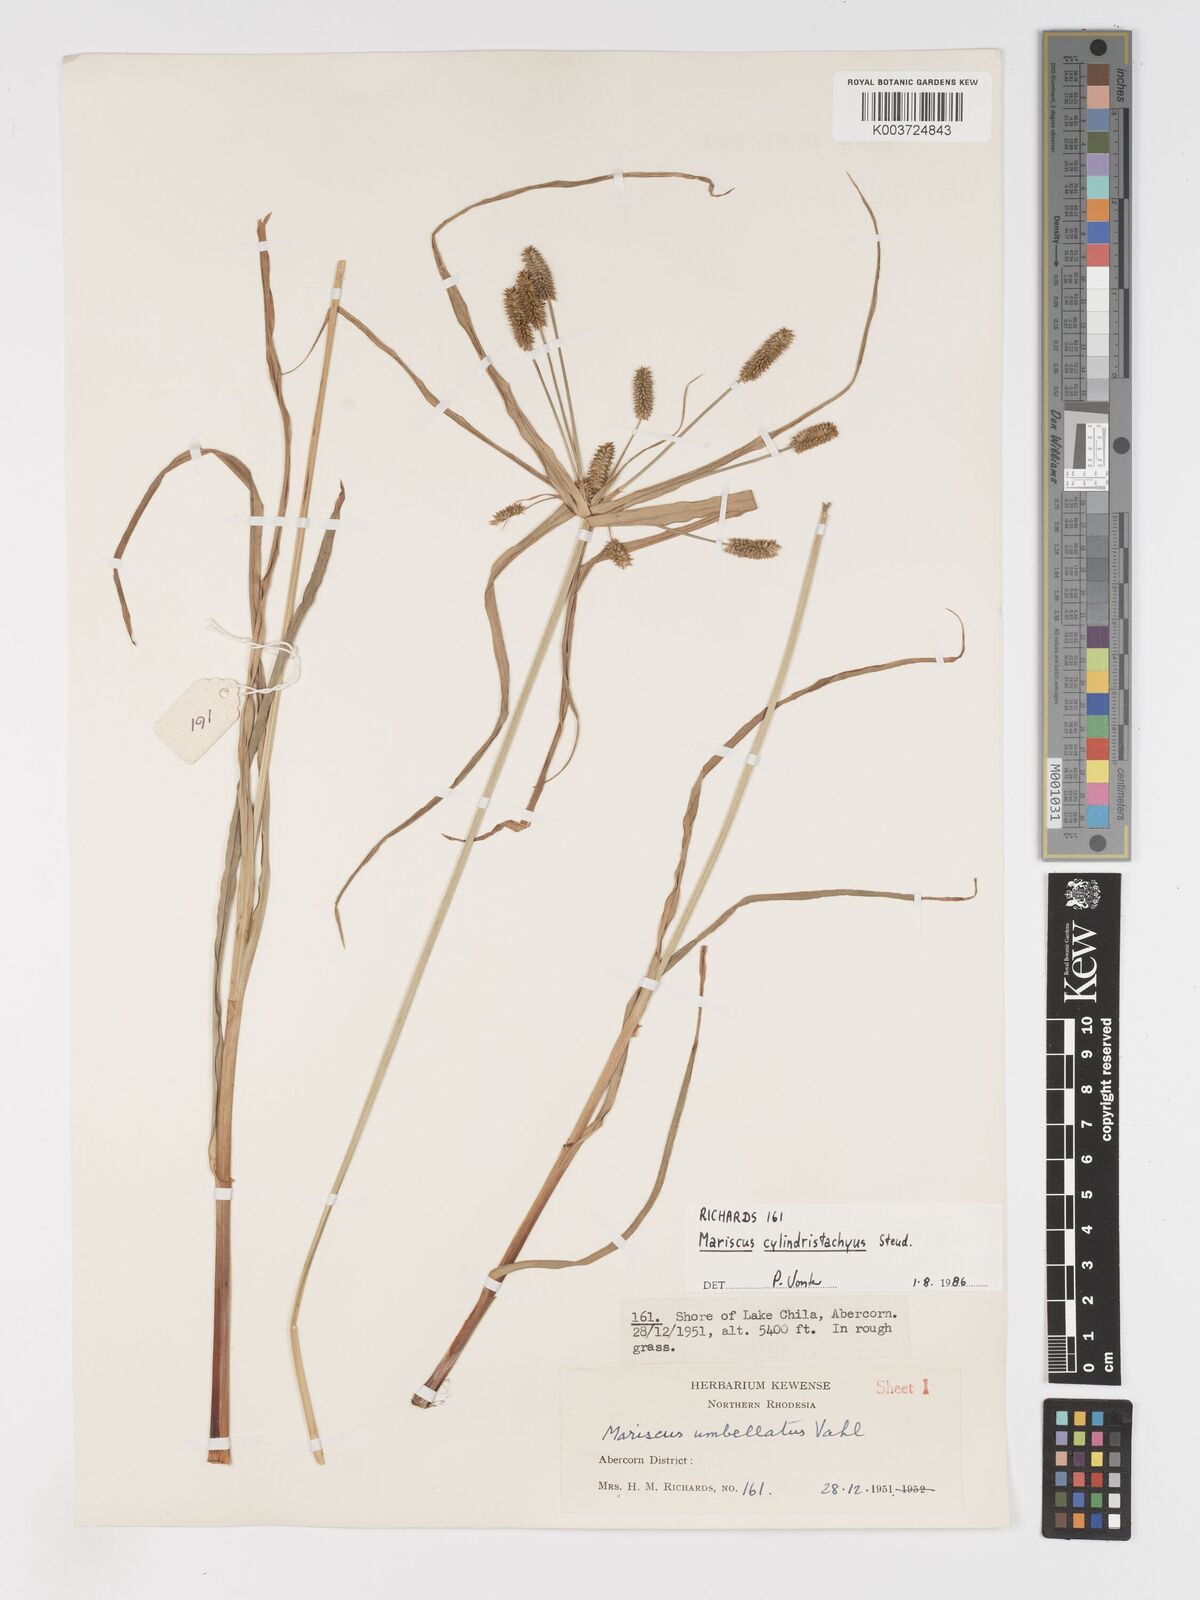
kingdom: Plantae
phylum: Tracheophyta
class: Liliopsida
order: Poales
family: Cyperaceae
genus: Cyperus
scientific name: Cyperus cyperoides
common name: Pacific island flat sedge
